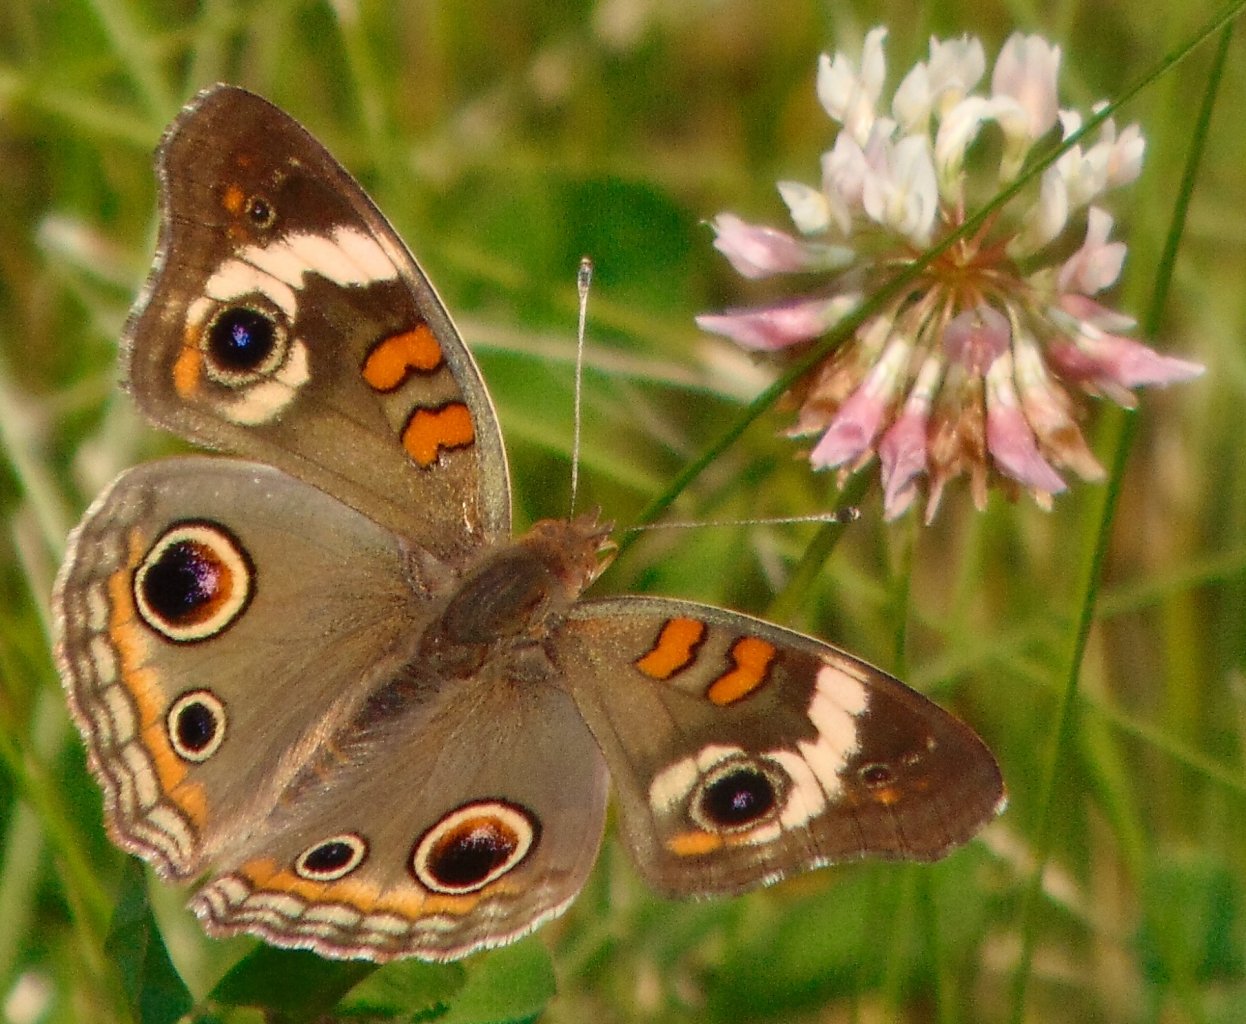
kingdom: Animalia
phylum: Arthropoda
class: Insecta
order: Lepidoptera
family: Nymphalidae
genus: Junonia
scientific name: Junonia coenia
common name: Common Buckeye
